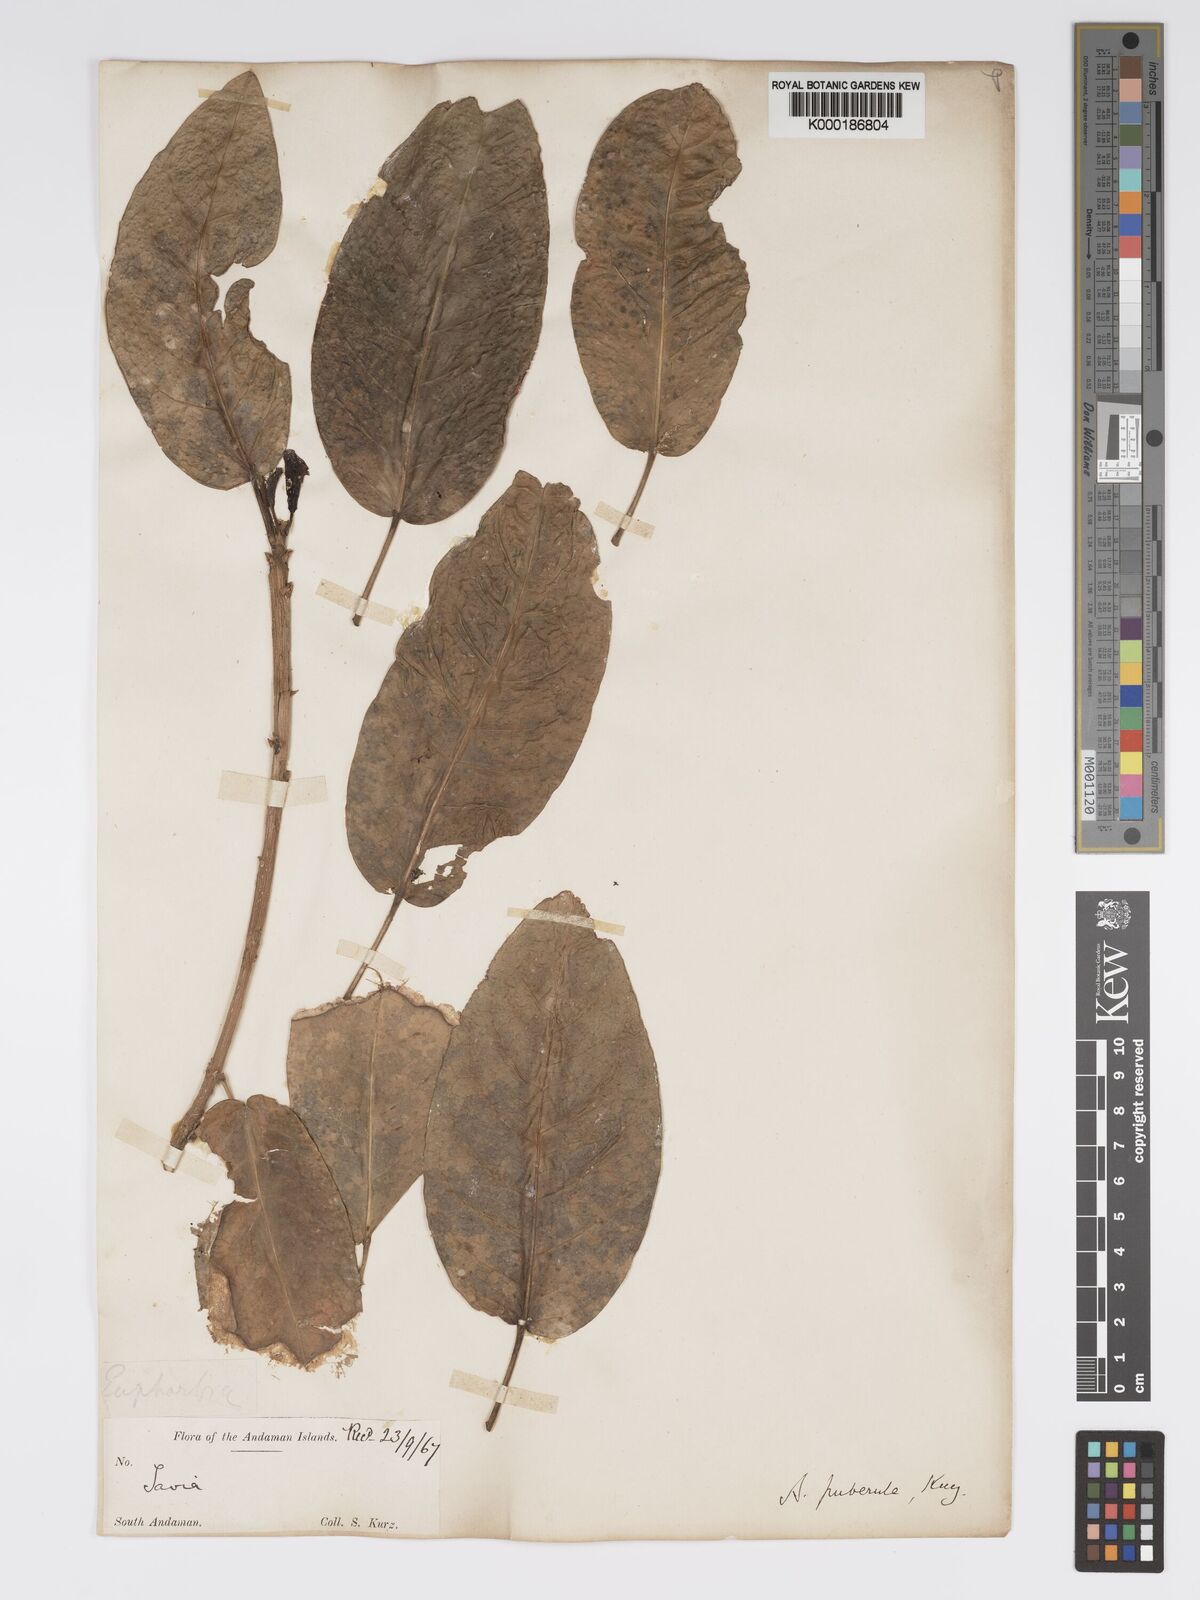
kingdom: Plantae
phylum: Tracheophyta
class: Magnoliopsida
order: Malpighiales
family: Phyllanthaceae
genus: Actephila
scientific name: Actephila excelsa
